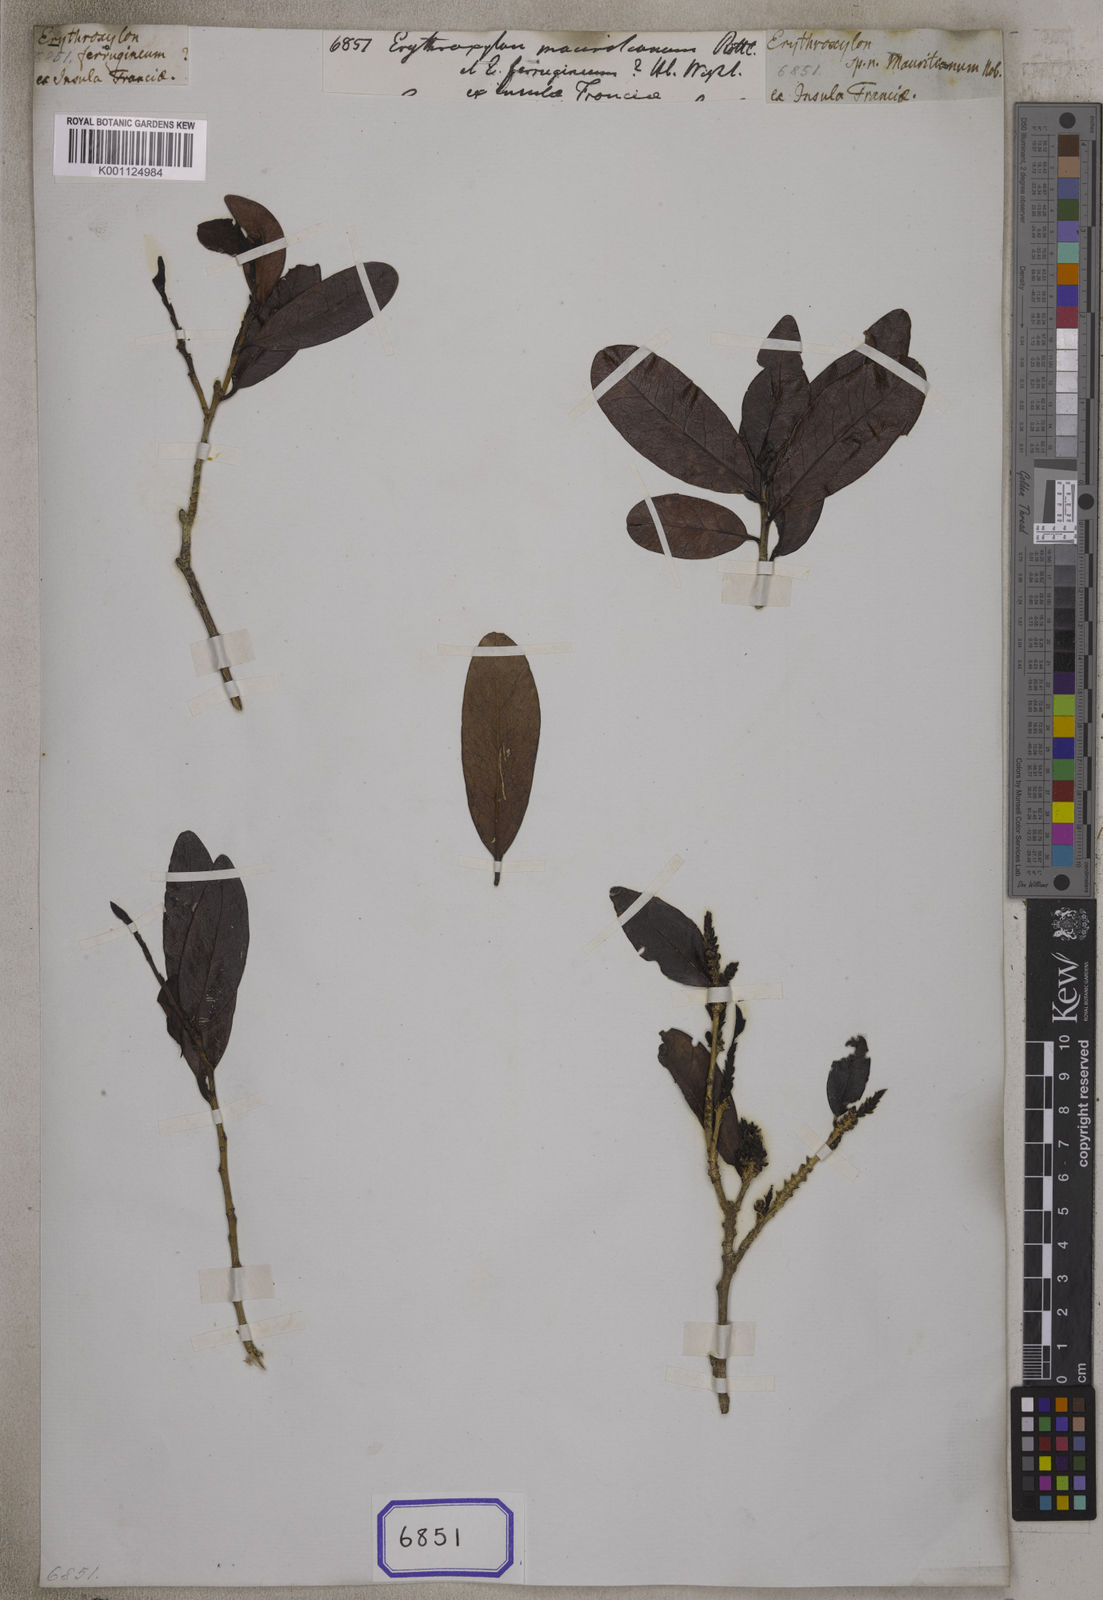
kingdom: Plantae
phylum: Tracheophyta
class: Magnoliopsida
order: Malpighiales
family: Erythroxylaceae
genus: Erythroxylum
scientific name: Erythroxylum
